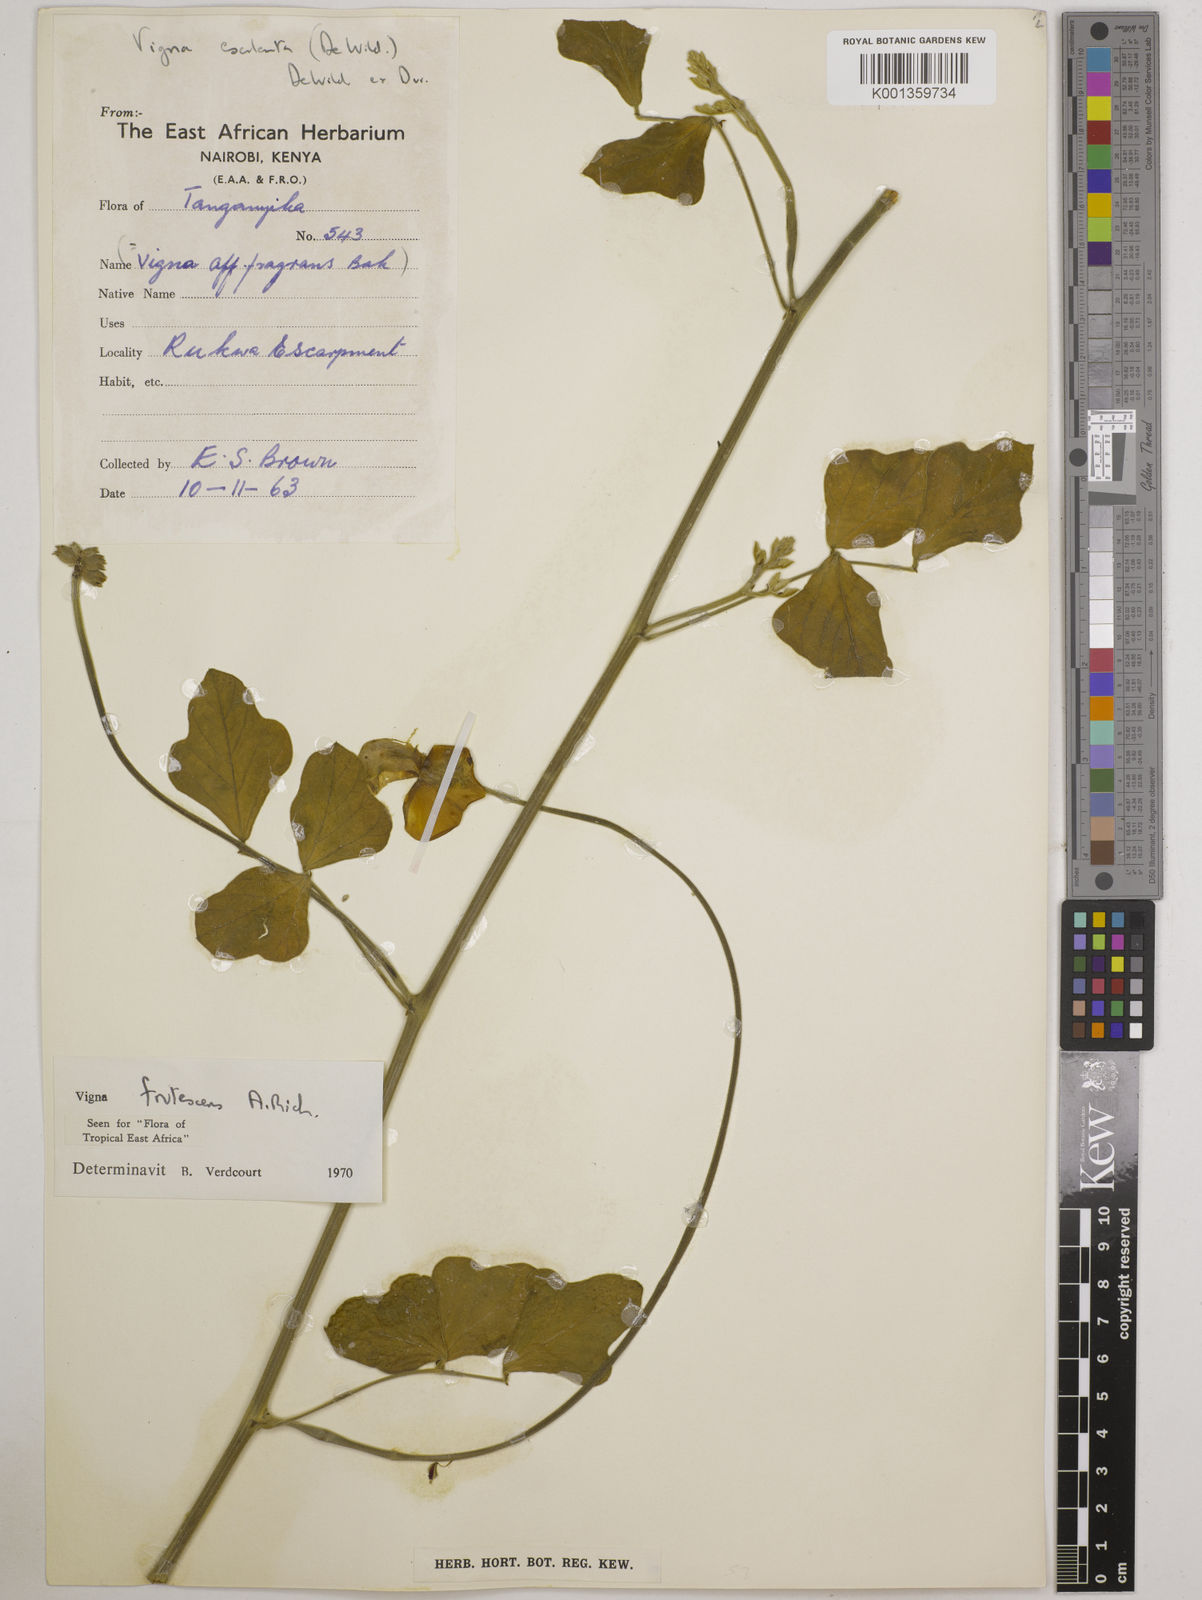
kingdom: Plantae
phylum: Tracheophyta
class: Magnoliopsida
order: Fabales
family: Fabaceae
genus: Vigna
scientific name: Vigna frutescens
